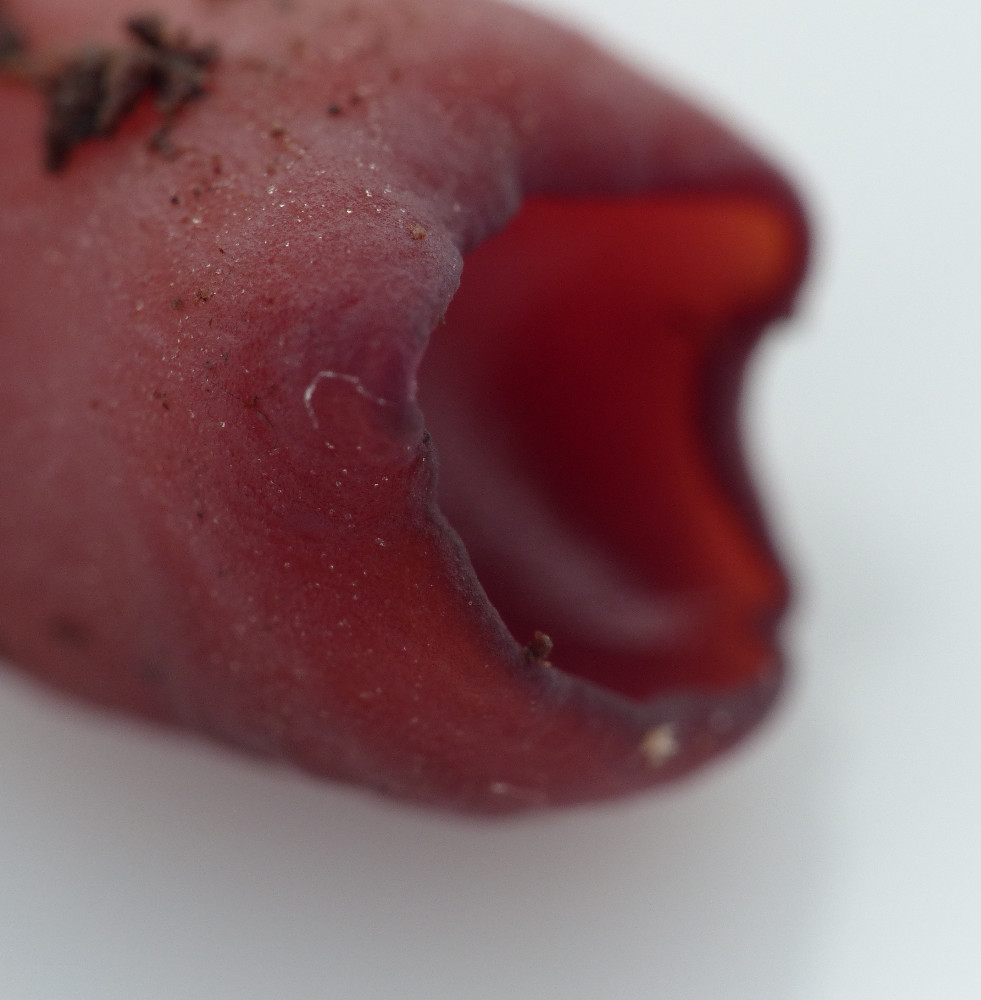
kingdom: Fungi
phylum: Ascomycota
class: Leotiomycetes
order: Helotiales
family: Gelatinodiscaceae
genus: Ascocoryne
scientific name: Ascocoryne
